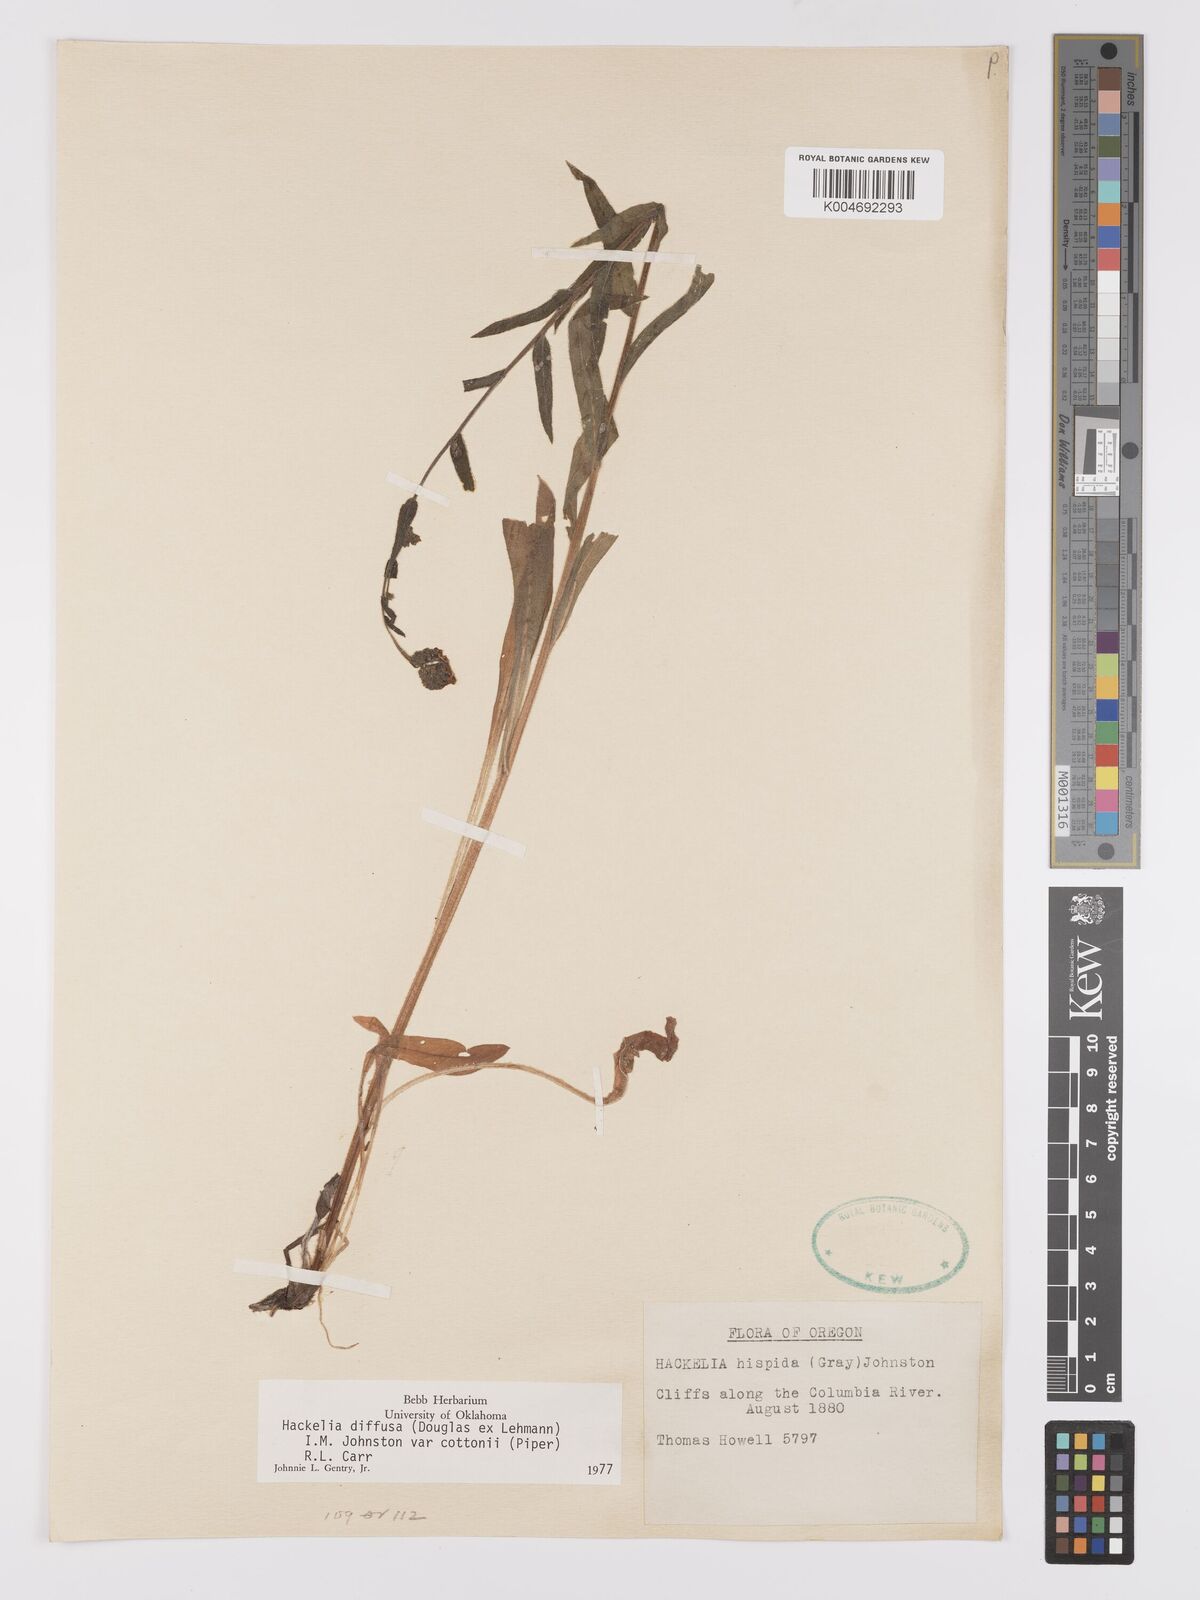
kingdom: Plantae
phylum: Tracheophyta
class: Magnoliopsida
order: Boraginales
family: Boraginaceae
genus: Hackelia
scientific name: Hackelia diffusa
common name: Spreading hackelia
